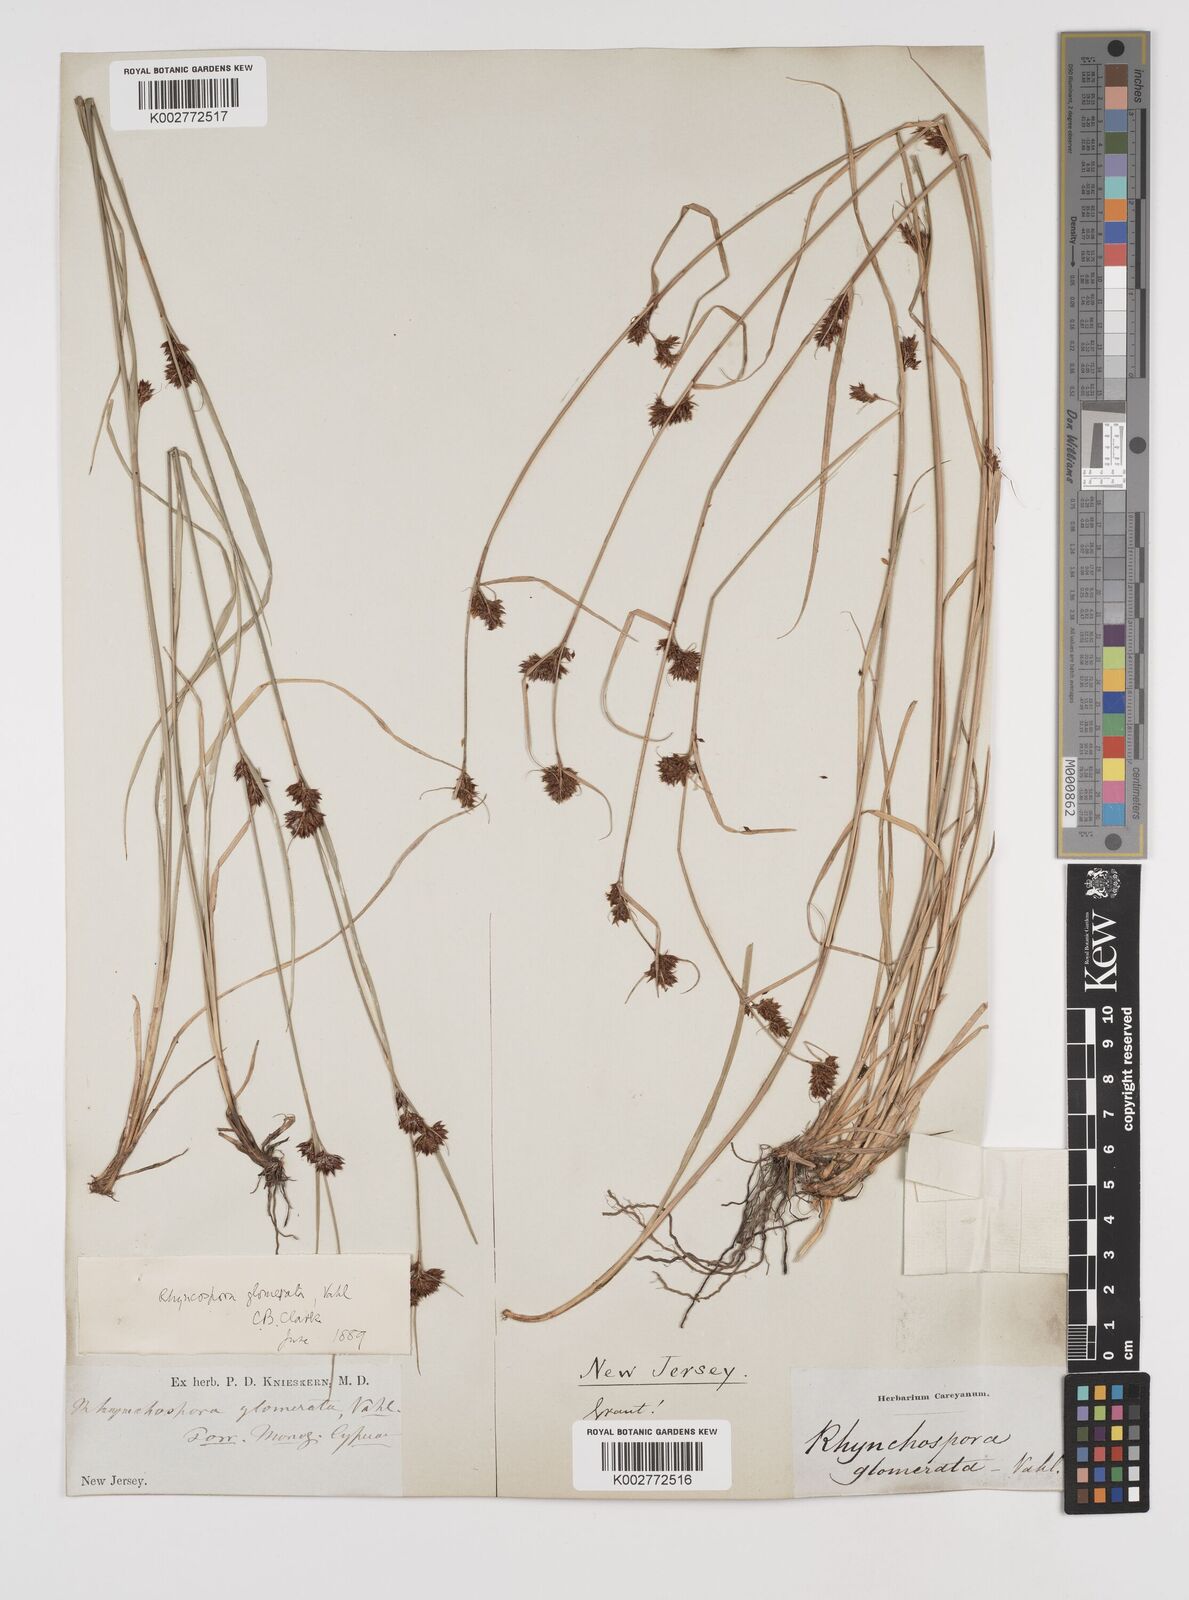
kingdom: Plantae
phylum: Tracheophyta
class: Liliopsida
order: Poales
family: Cyperaceae
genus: Rhynchospora
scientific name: Rhynchospora glomerata
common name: Cluster beak sedge
